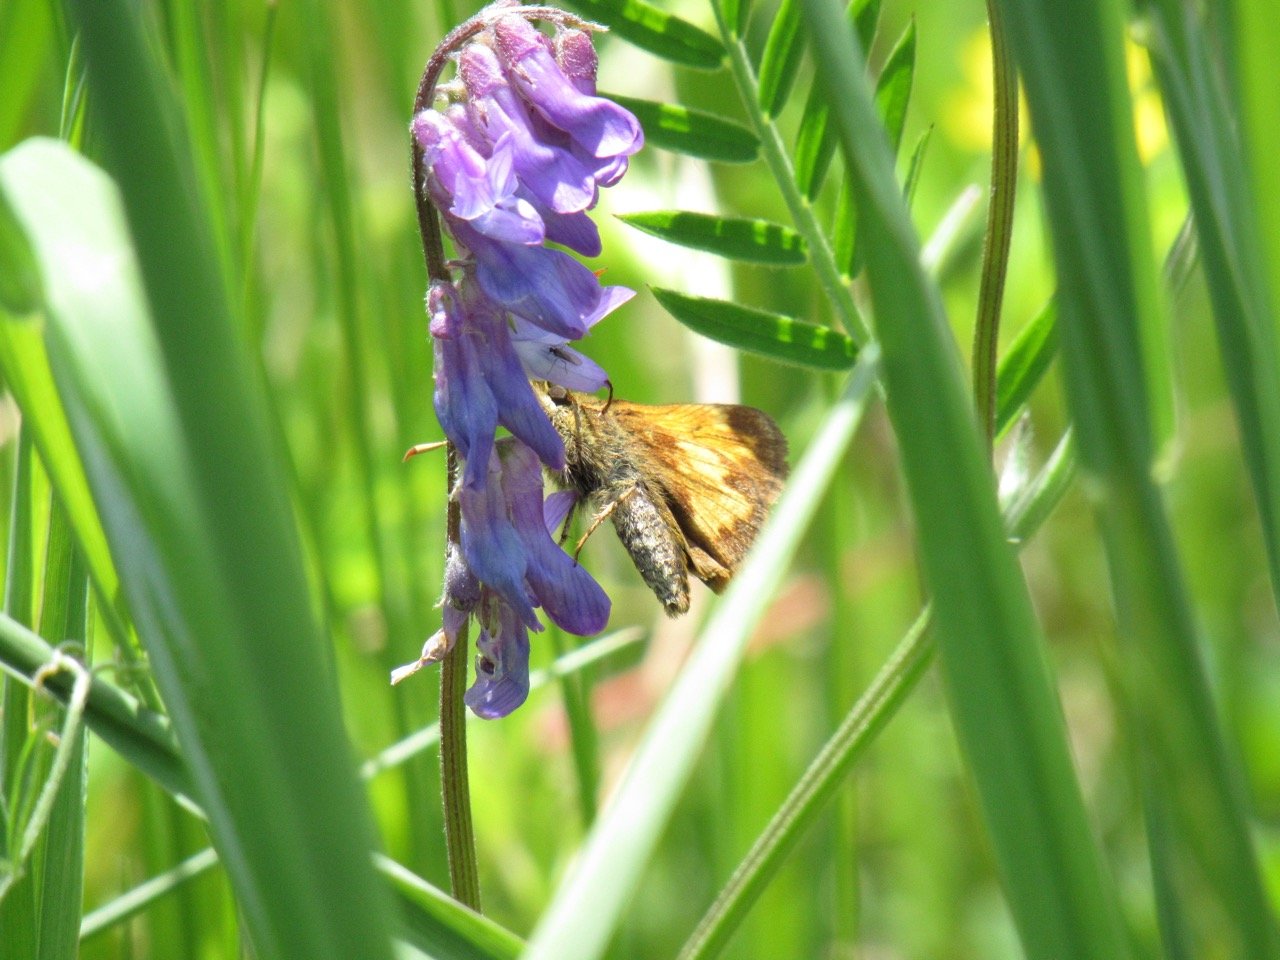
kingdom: Animalia
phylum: Arthropoda
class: Insecta
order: Lepidoptera
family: Hesperiidae
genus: Lon
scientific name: Lon hobomok
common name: Hobomok Skipper
